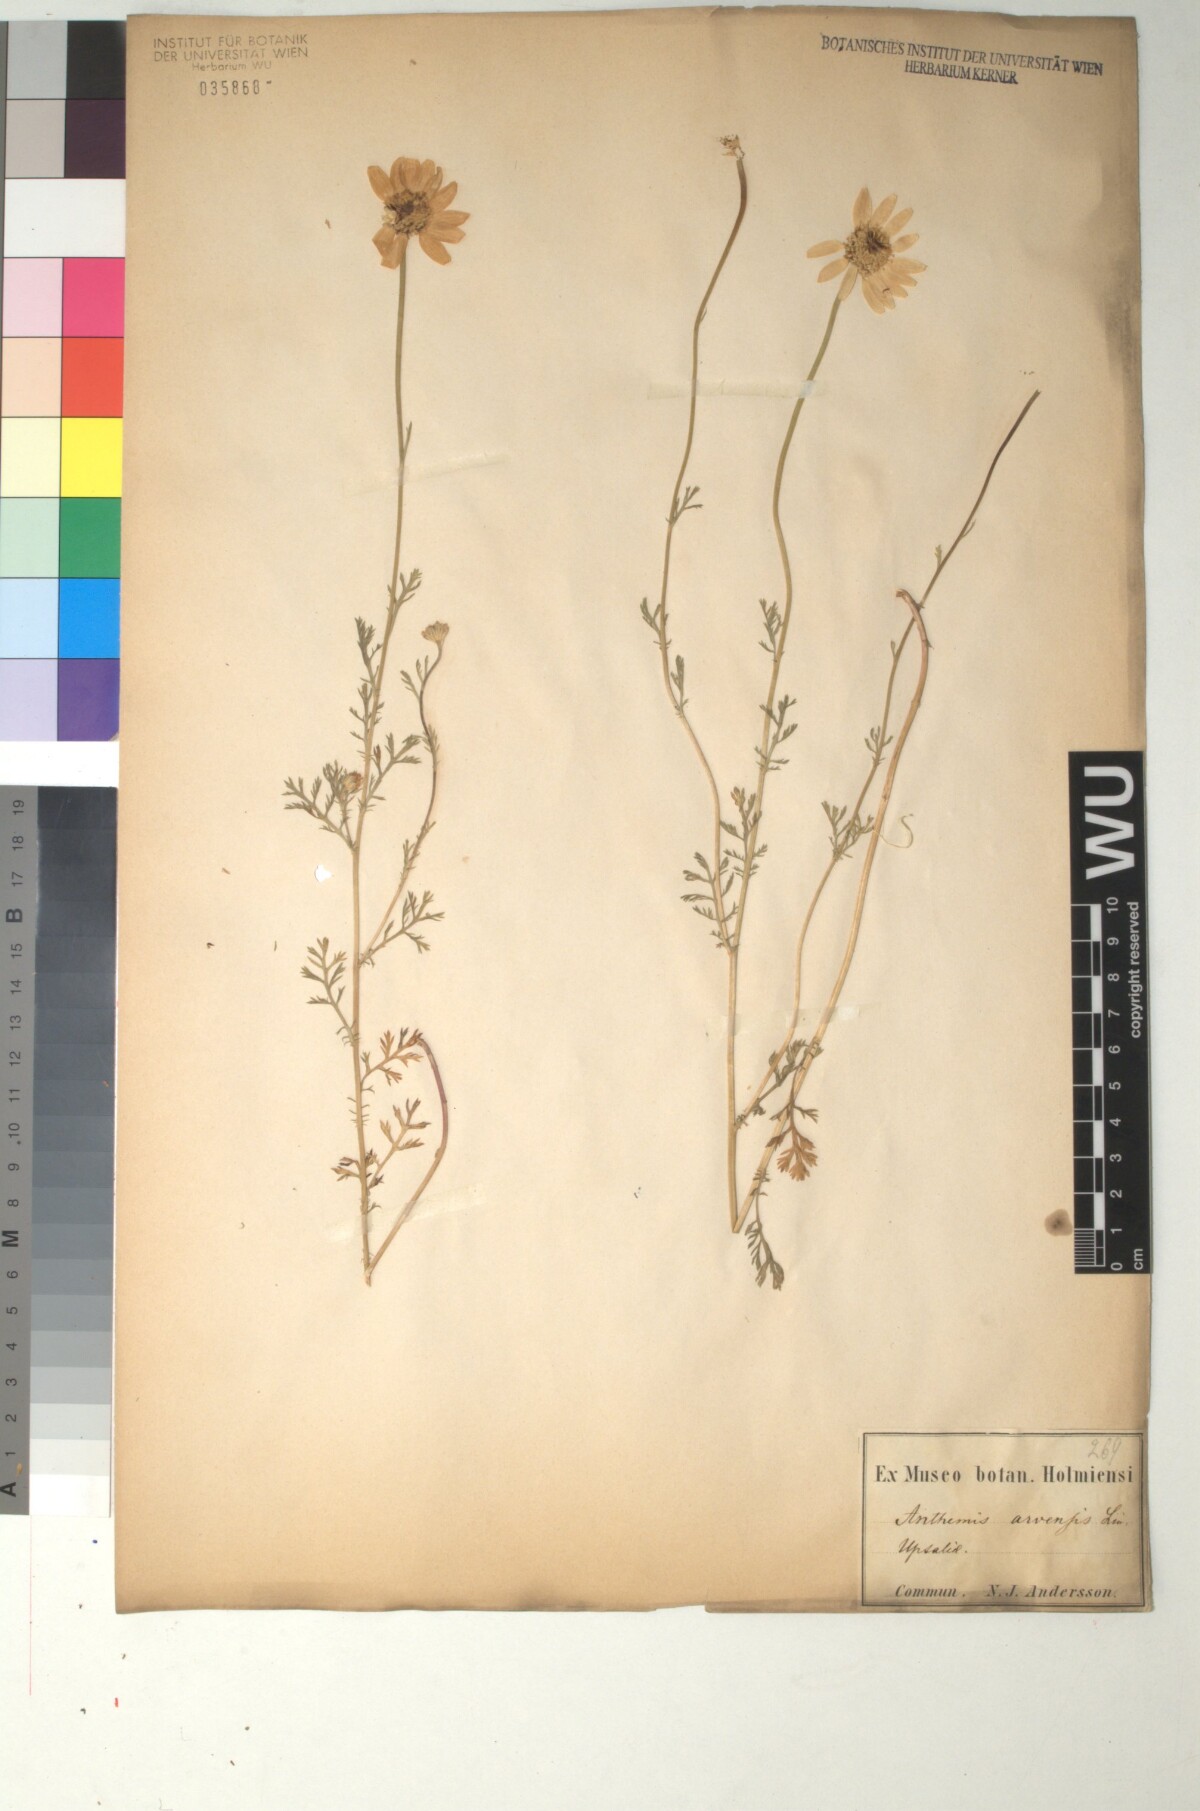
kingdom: Plantae
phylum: Tracheophyta
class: Magnoliopsida
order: Asterales
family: Asteraceae
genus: Anthemis
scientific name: Anthemis arvensis
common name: Corn chamomile
